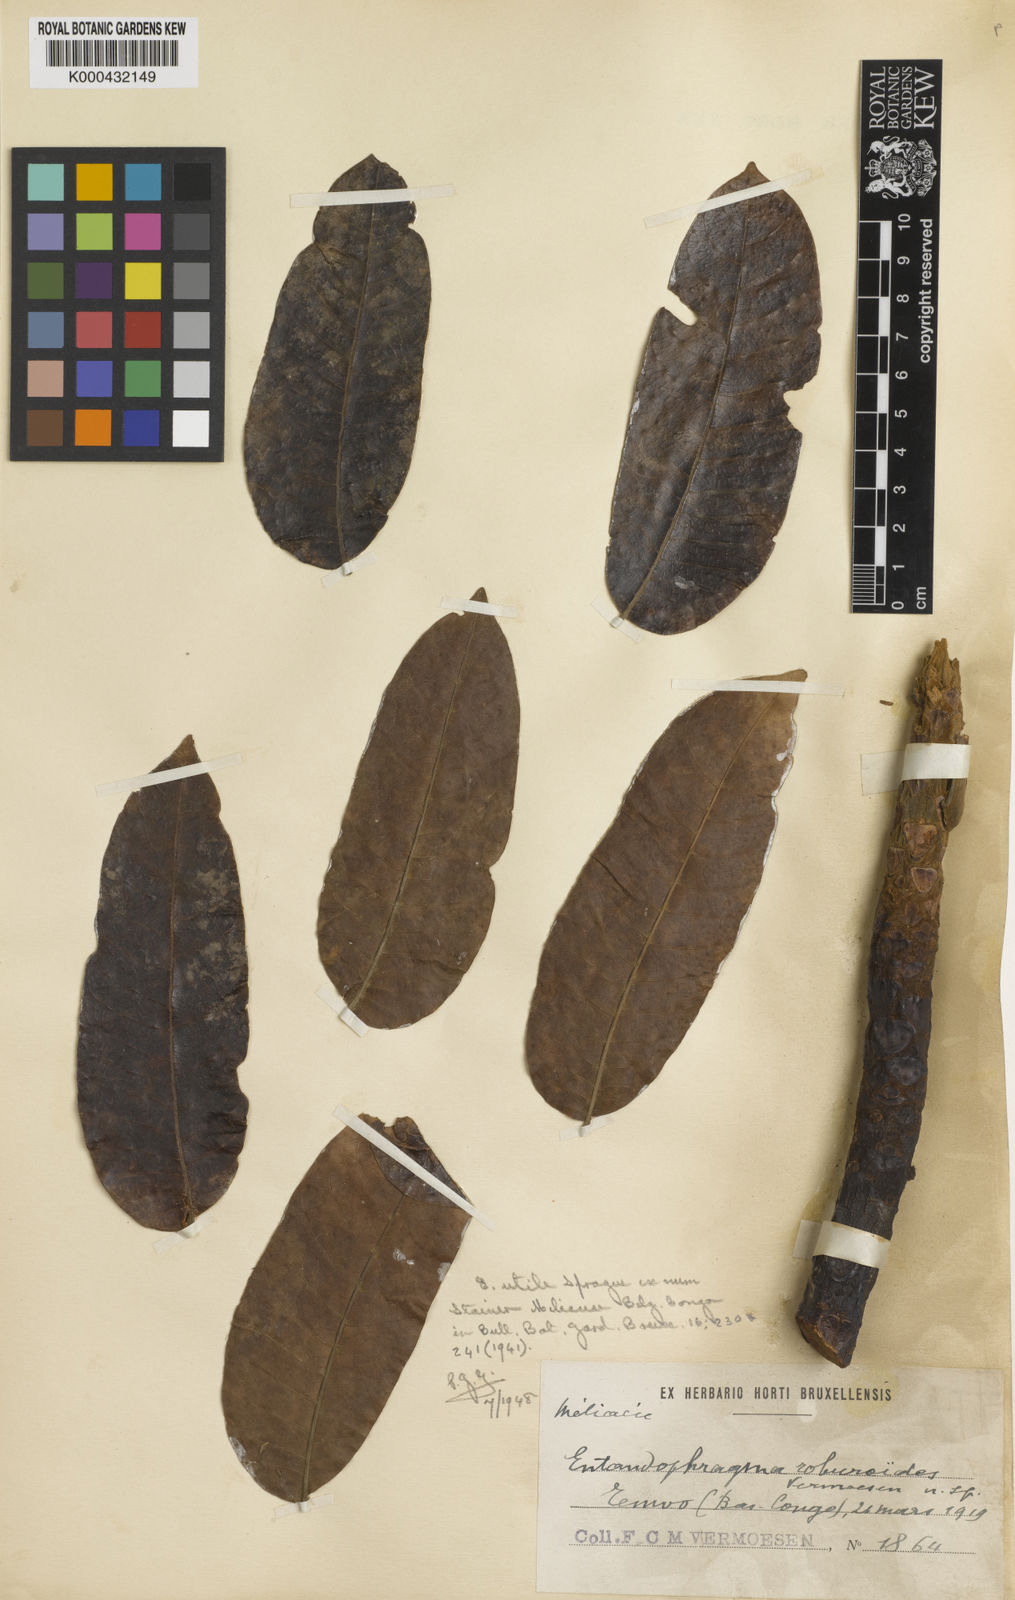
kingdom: Plantae
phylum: Tracheophyta
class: Magnoliopsida
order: Sapindales
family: Meliaceae
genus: Entandrophragma
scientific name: Entandrophragma utile
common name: Utile
